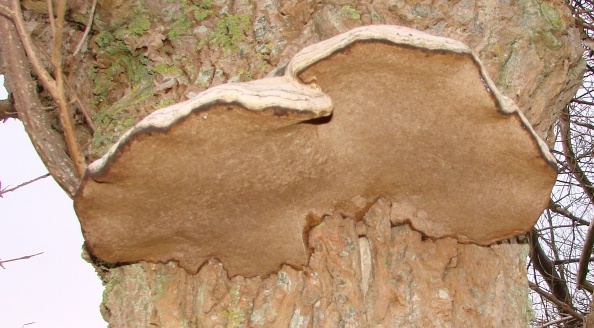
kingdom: Fungi
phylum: Basidiomycota
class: Agaricomycetes
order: Hymenochaetales
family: Hymenochaetaceae
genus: Phellinus
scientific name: Phellinus populicola
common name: poppel-ildporesvamp
